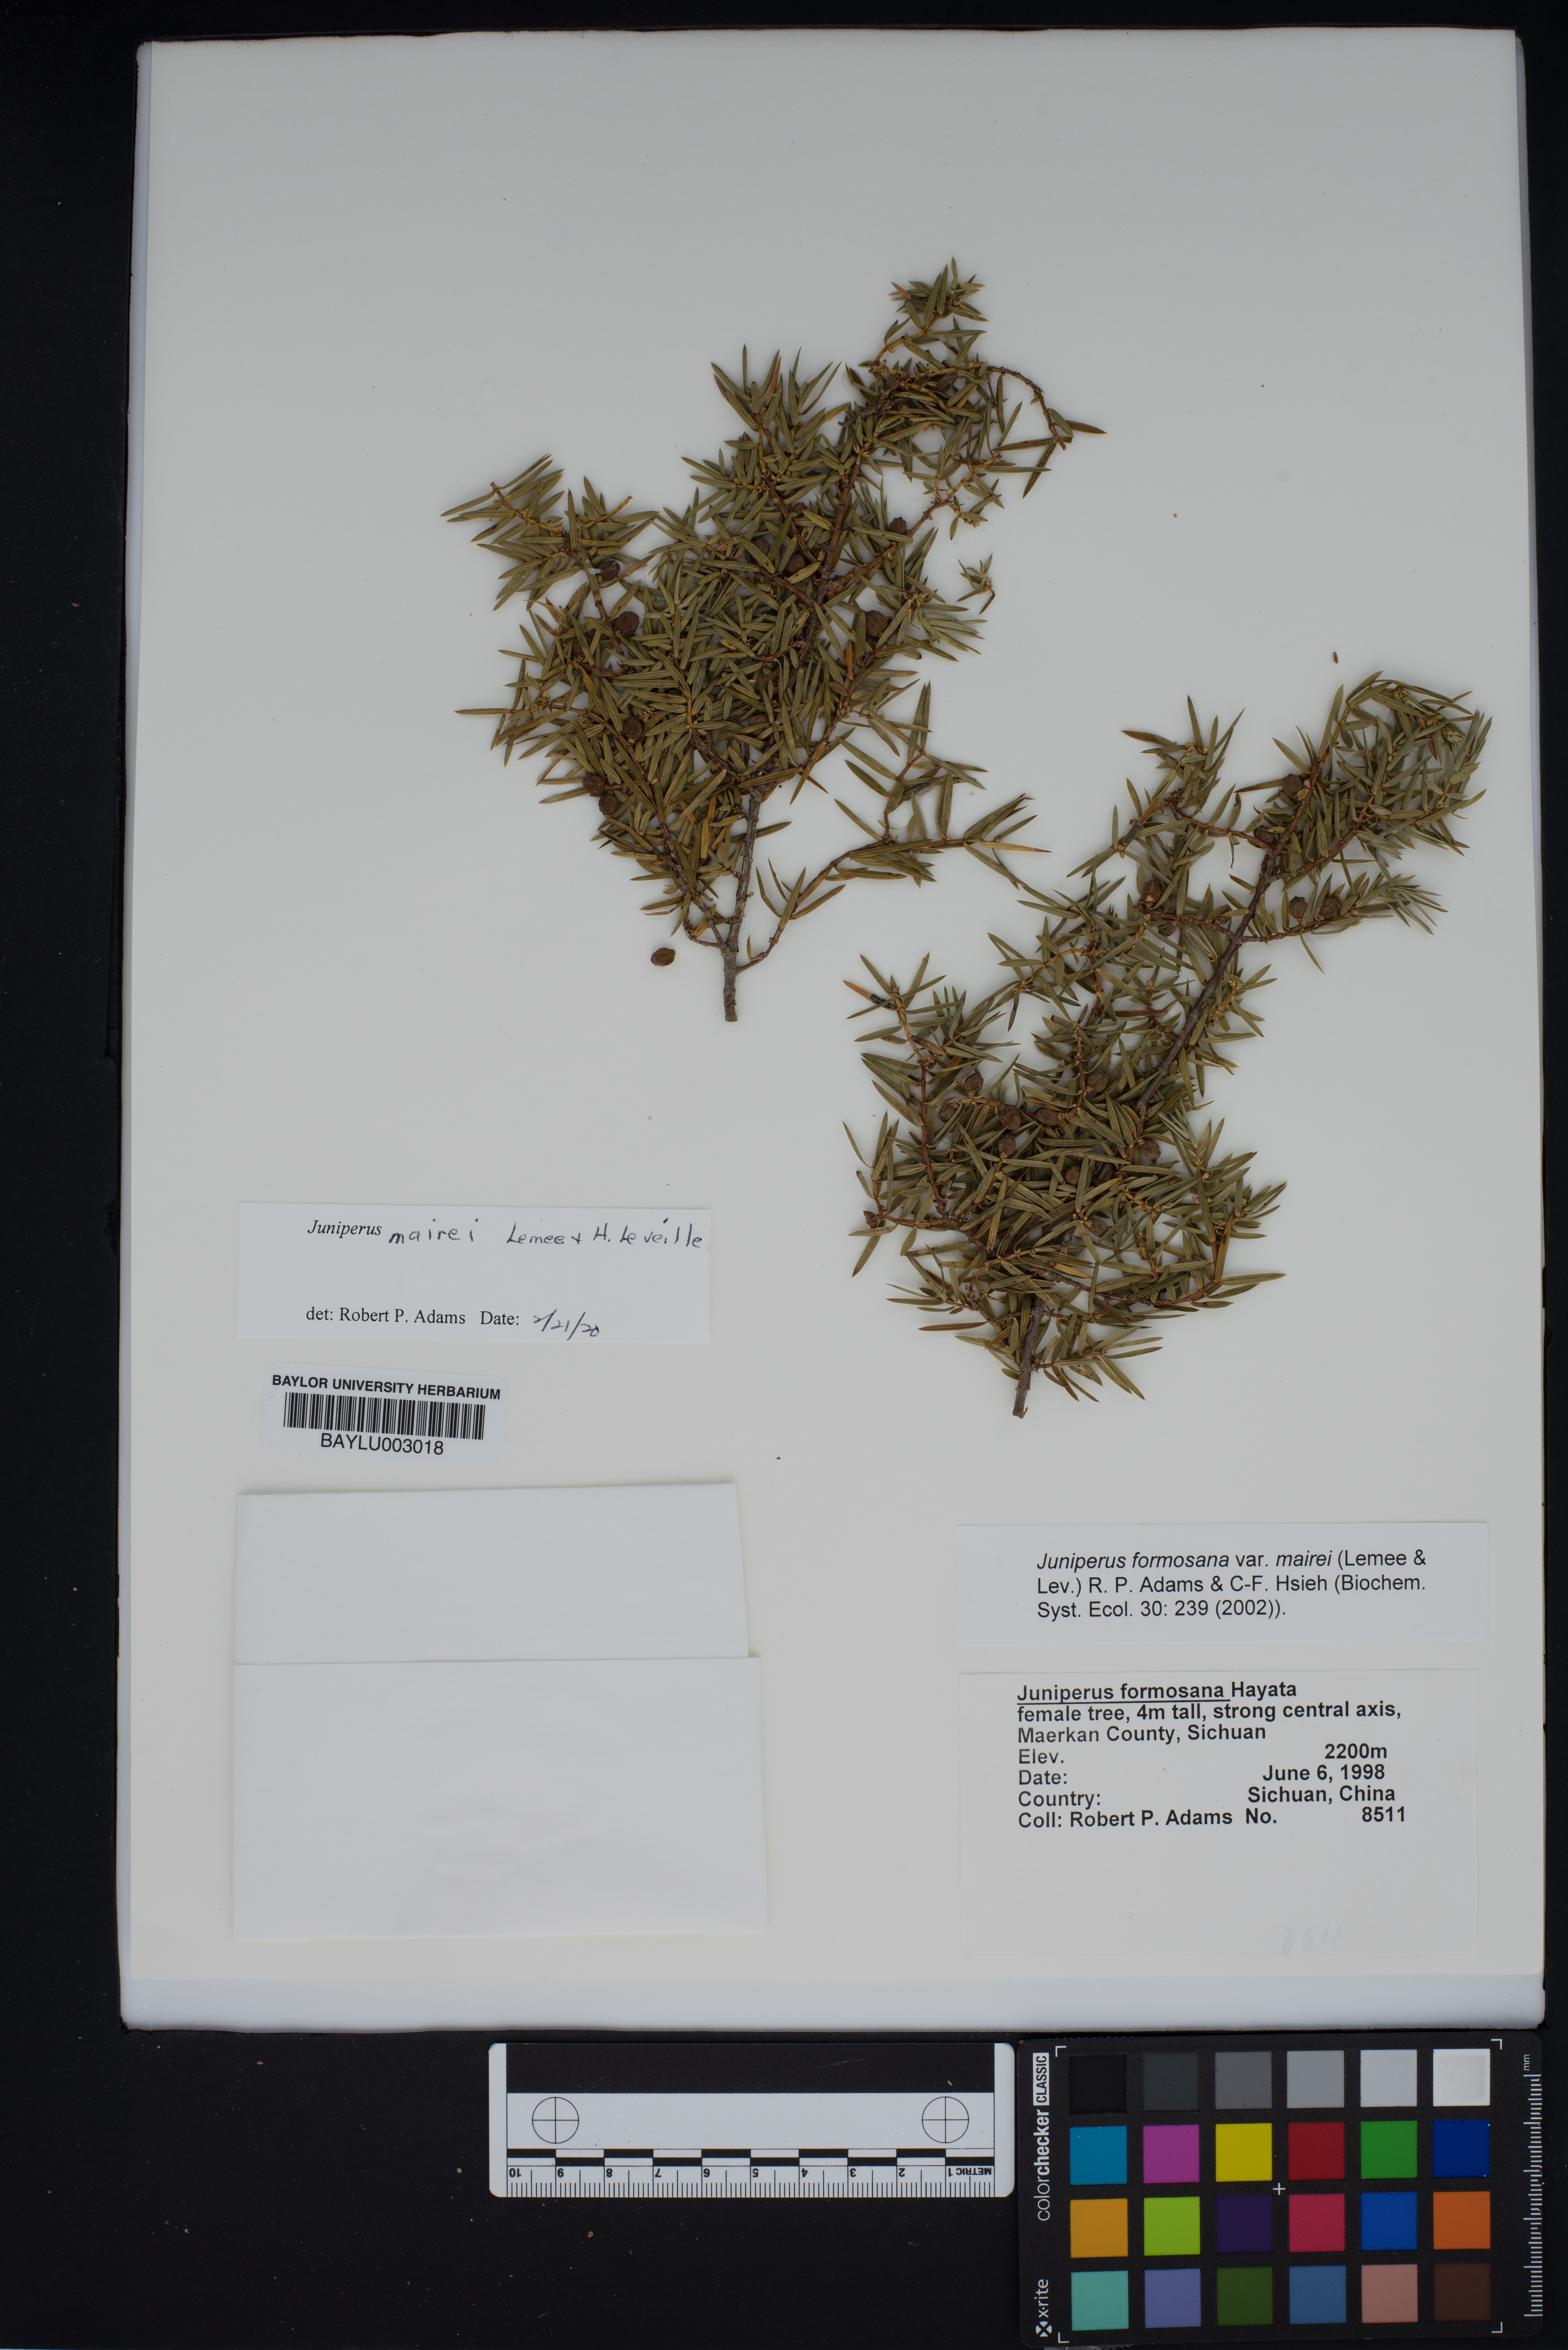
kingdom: Plantae
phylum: Tracheophyta
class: Pinopsida
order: Pinales
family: Cupressaceae
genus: Juniperus
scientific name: Juniperus formosana
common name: Formosan juniper
